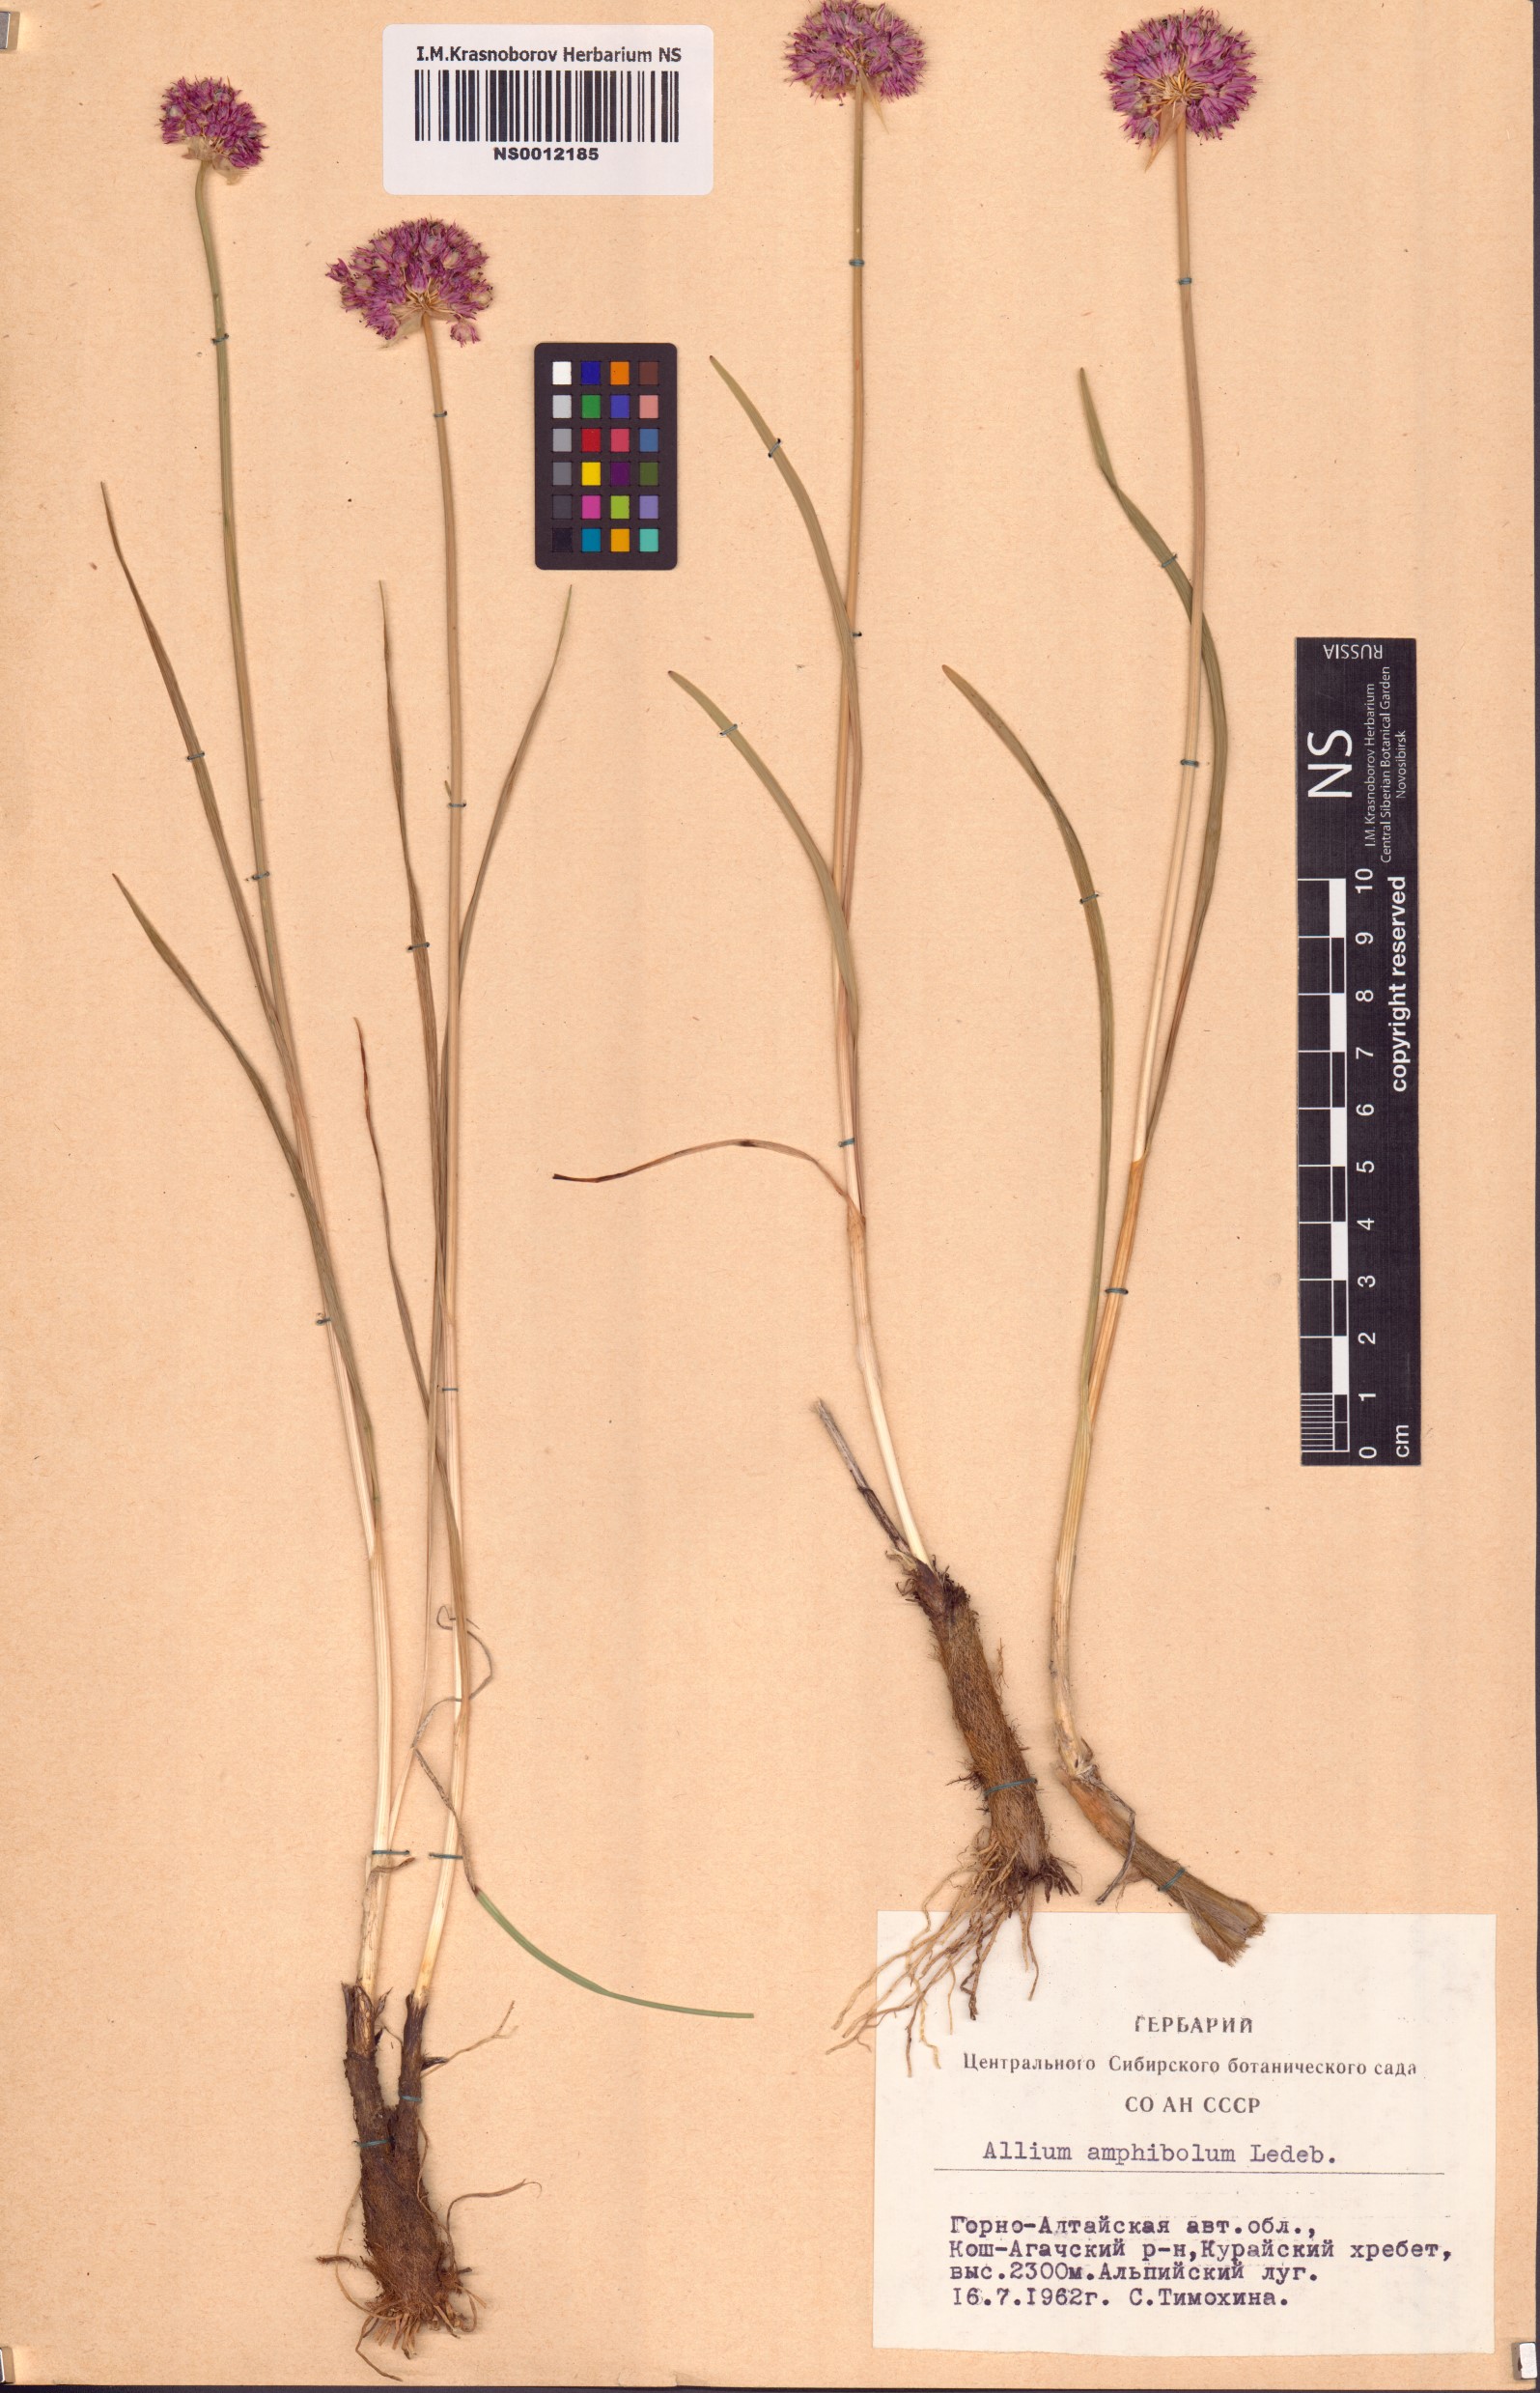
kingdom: Plantae
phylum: Tracheophyta
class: Liliopsida
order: Asparagales
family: Amaryllidaceae
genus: Allium
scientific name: Allium amphibolum
